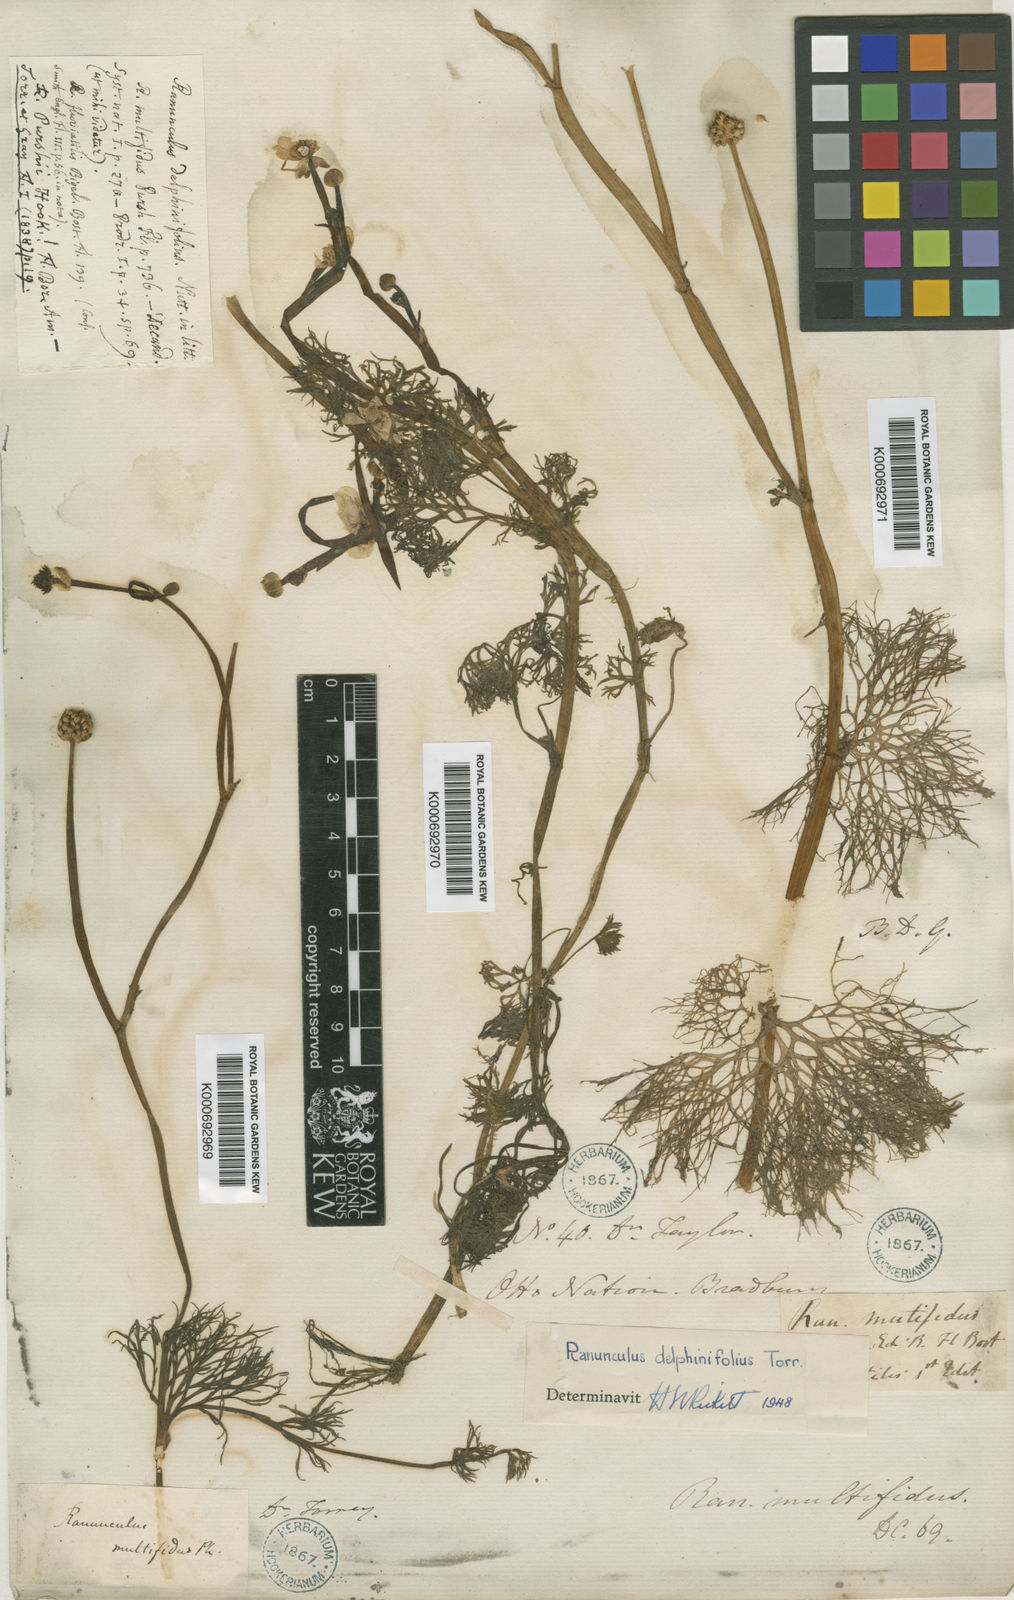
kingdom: Plantae
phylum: Tracheophyta
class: Magnoliopsida
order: Ranunculales
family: Ranunculaceae
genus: Ranunculus
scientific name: Ranunculus multifidus
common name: Wild buttercup
